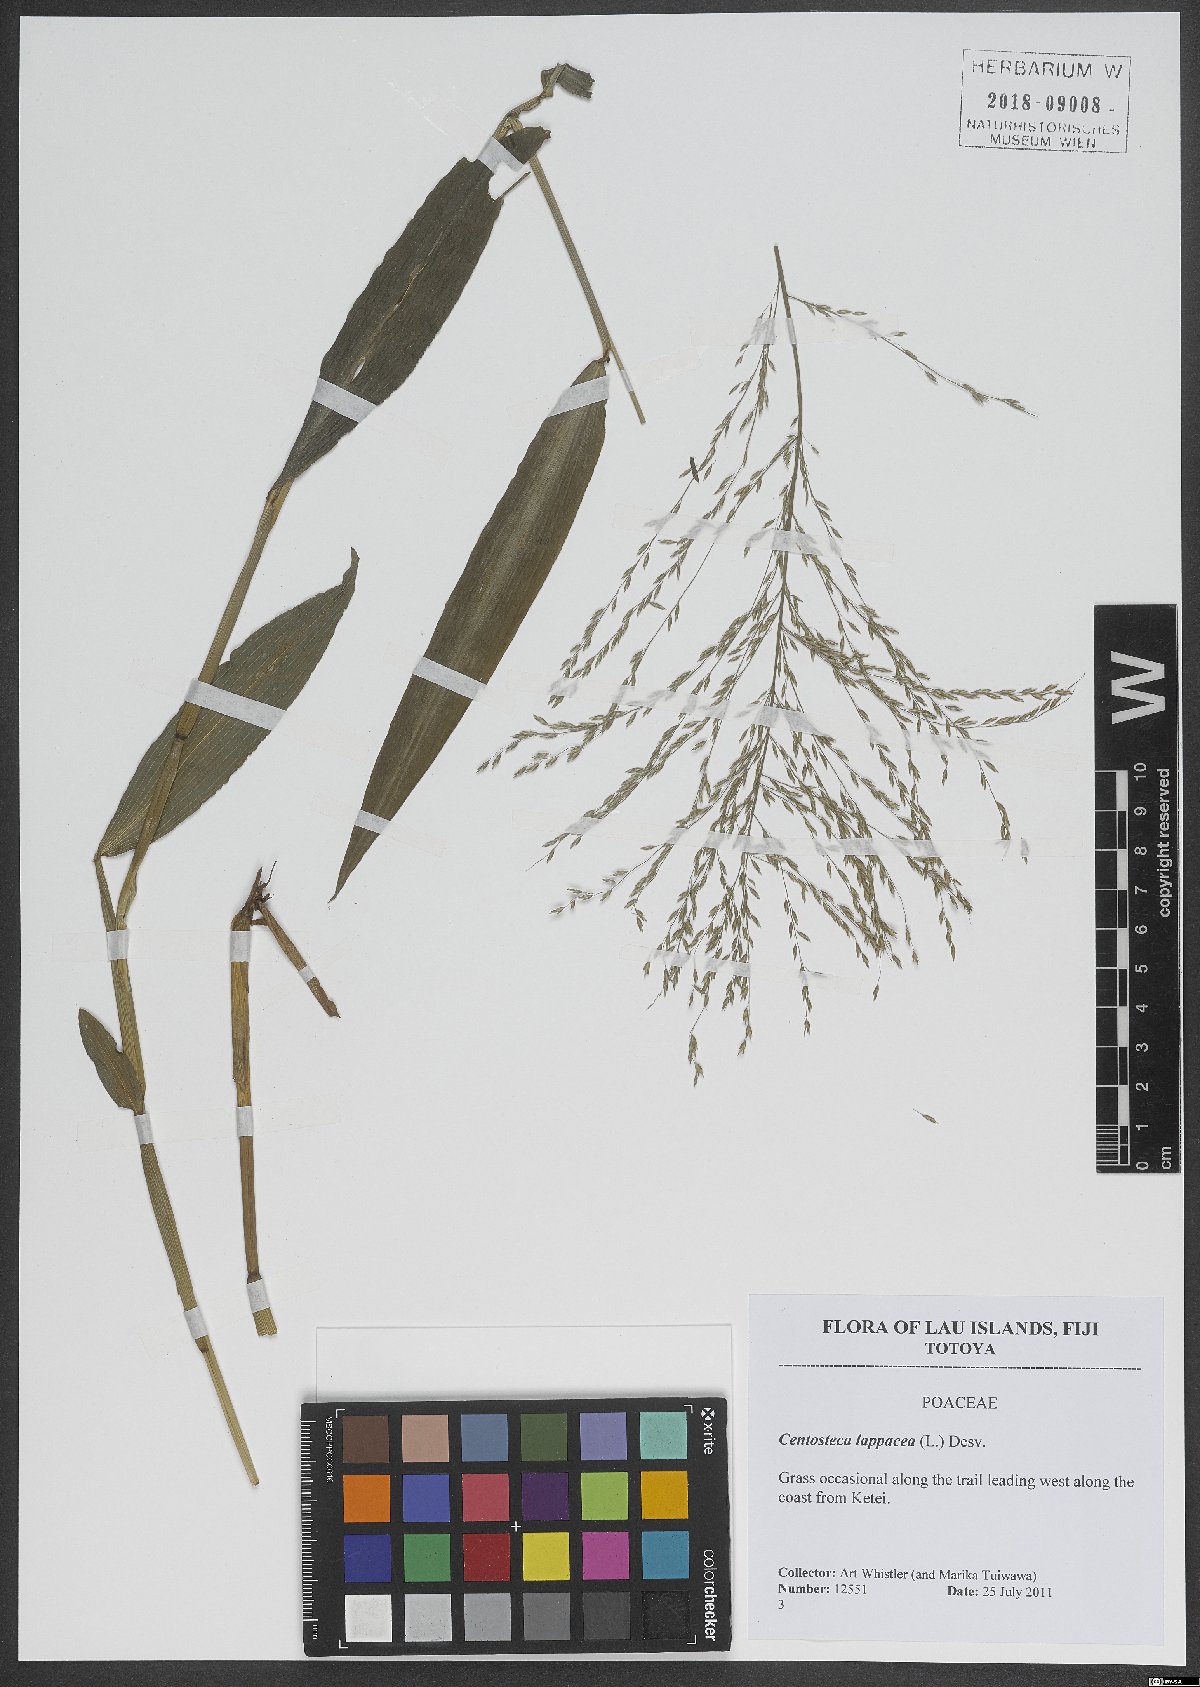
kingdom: Plantae
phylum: Tracheophyta
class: Liliopsida
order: Poales
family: Poaceae
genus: Centotheca
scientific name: Centotheca lappacea
